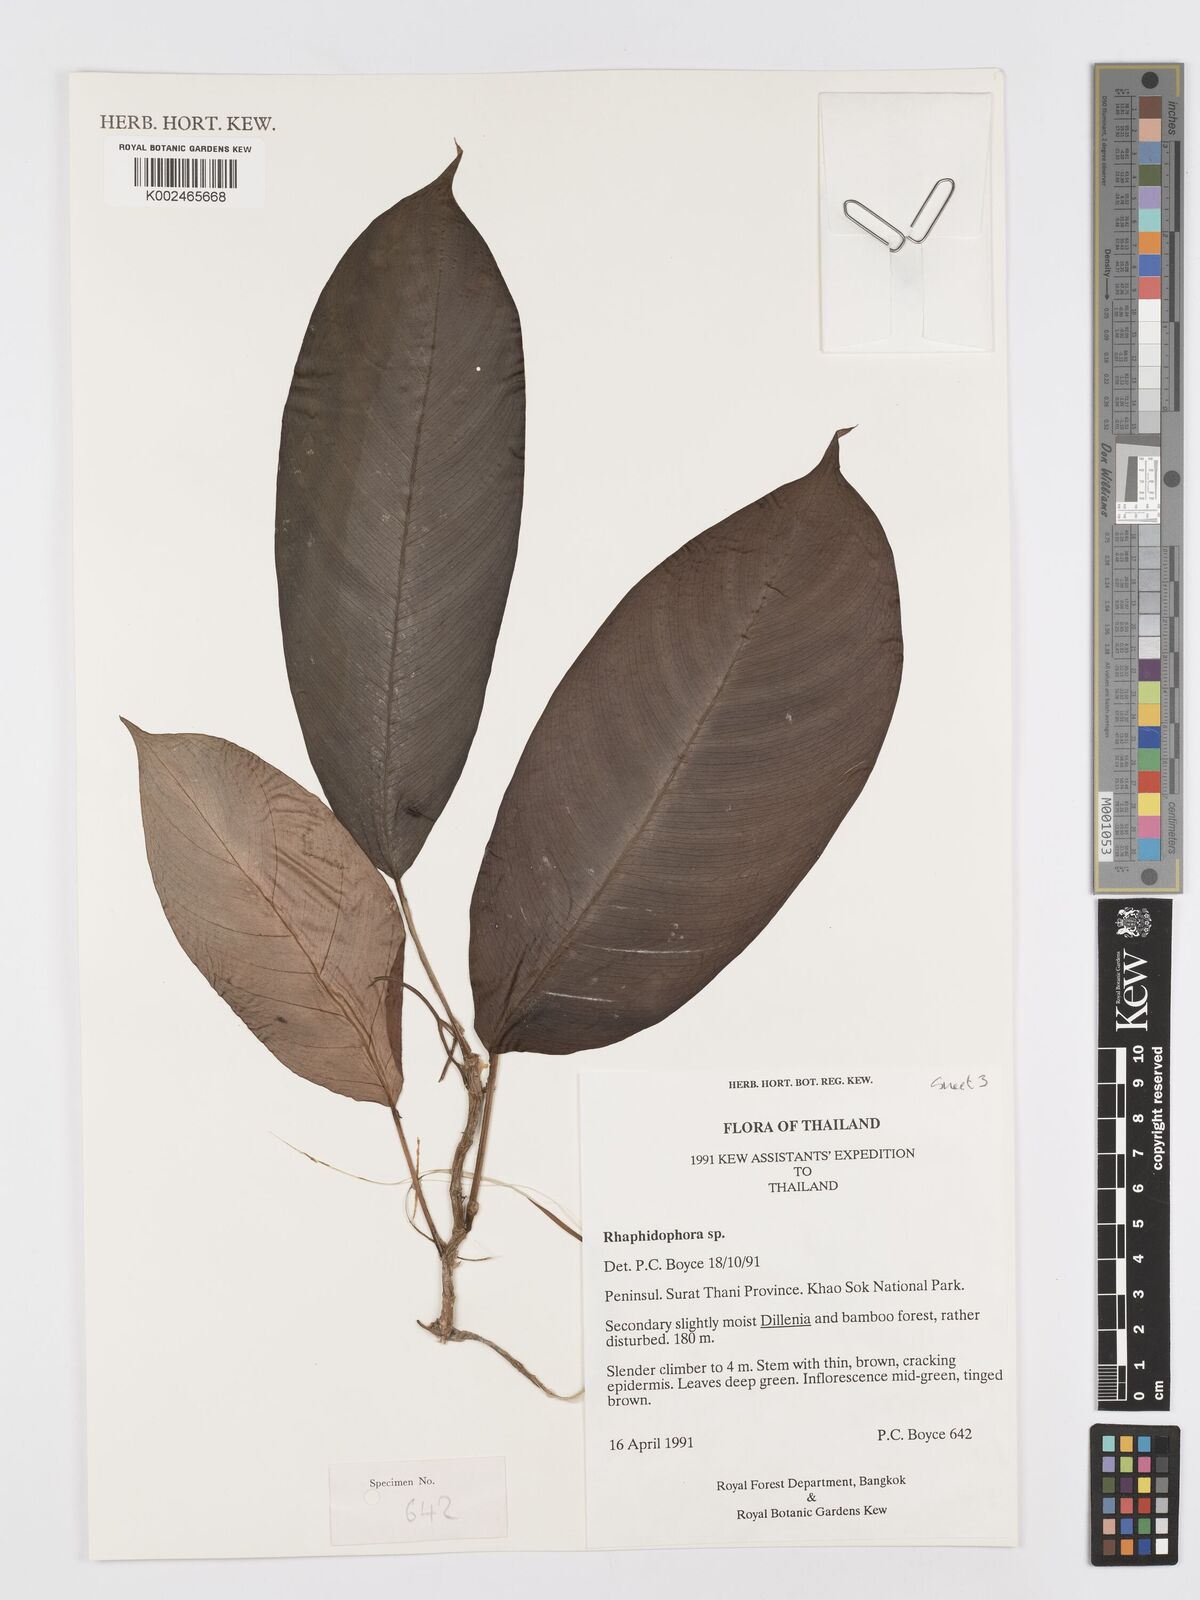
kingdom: Plantae
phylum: Tracheophyta
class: Liliopsida
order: Alismatales
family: Araceae
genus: Rhaphidophora
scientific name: Rhaphidophora lobbii
